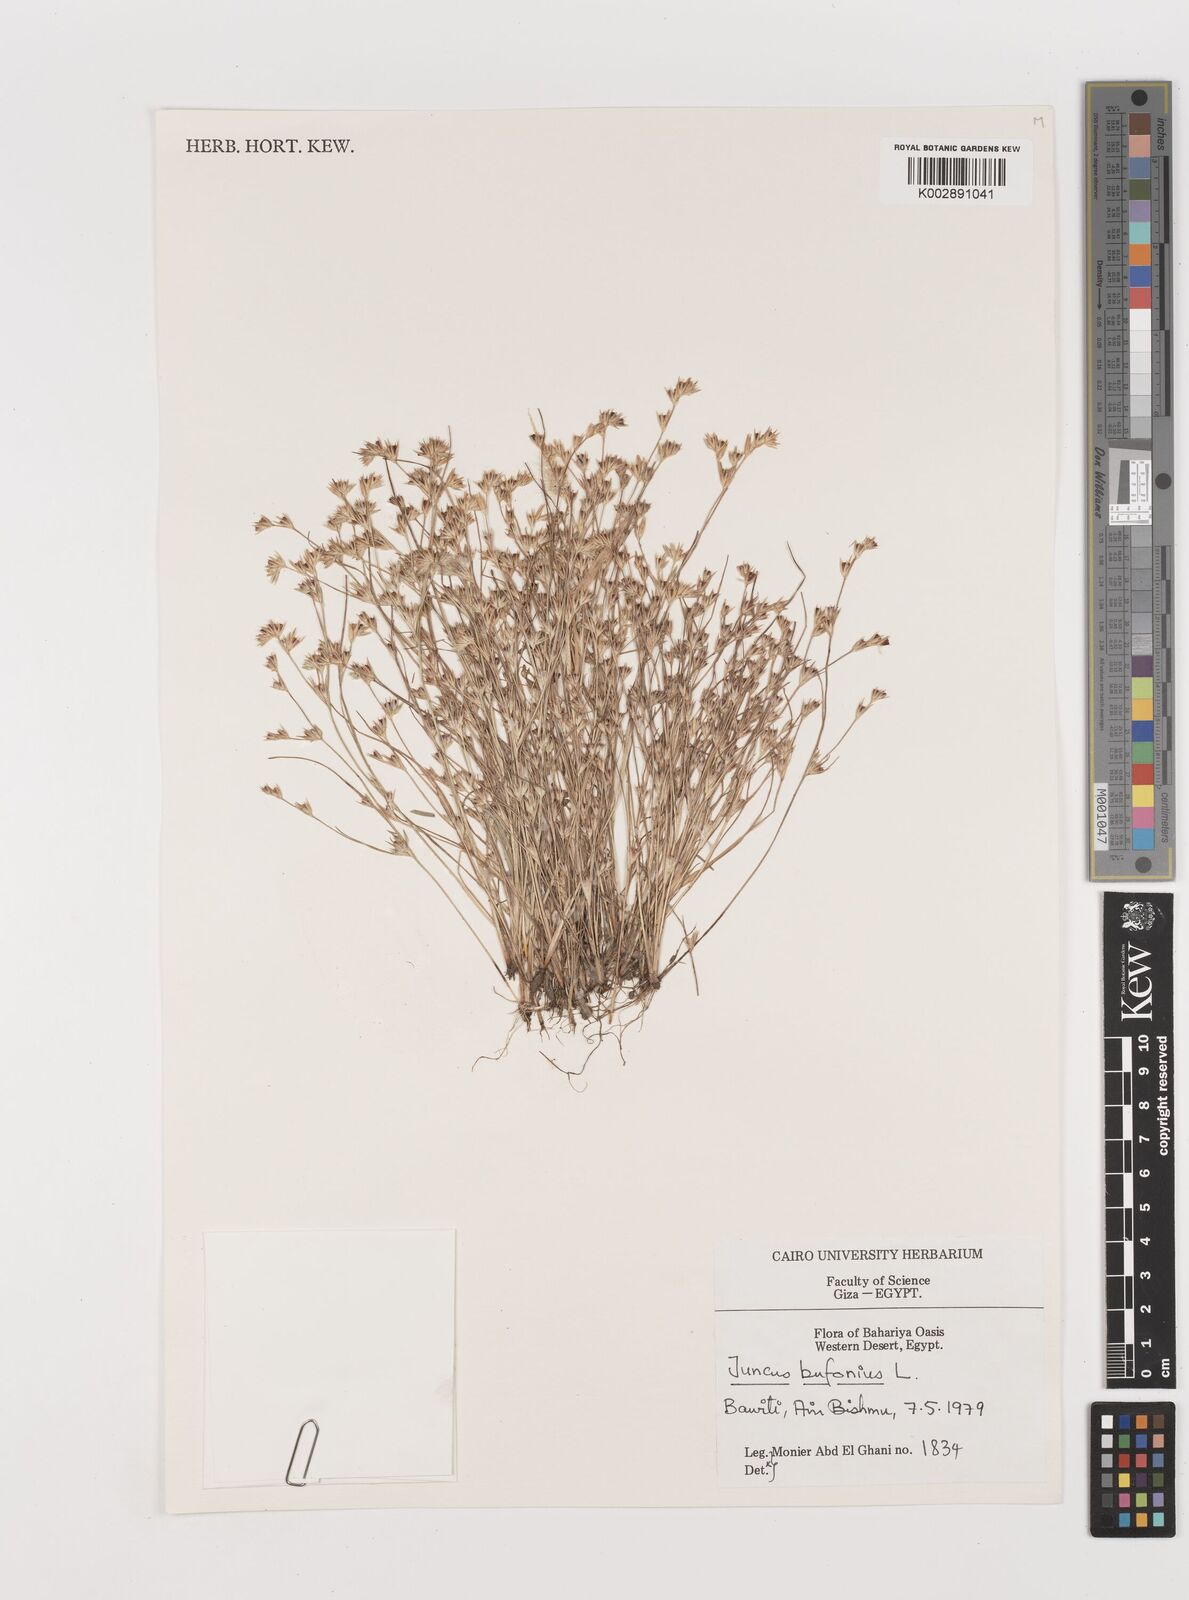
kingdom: Plantae
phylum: Tracheophyta
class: Liliopsida
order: Poales
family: Juncaceae
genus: Juncus
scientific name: Juncus bufonius
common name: Toad rush
